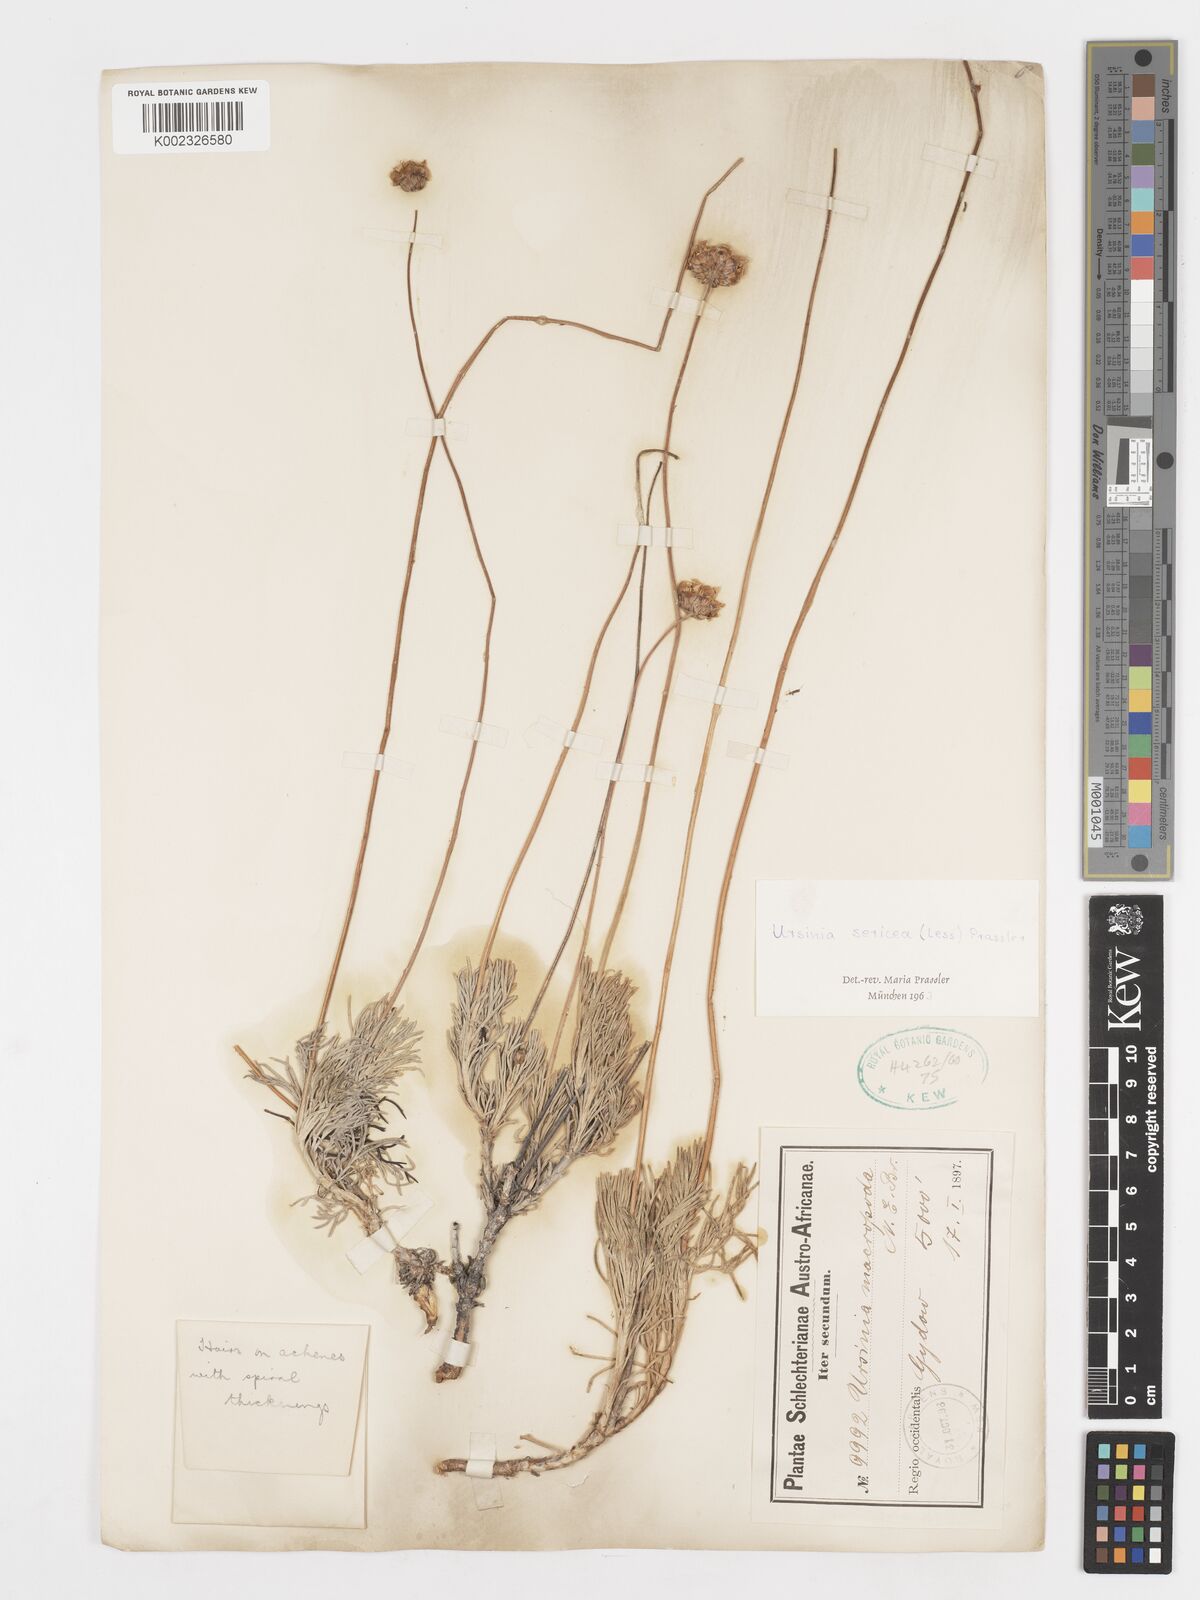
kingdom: Plantae
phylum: Tracheophyta
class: Magnoliopsida
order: Asterales
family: Asteraceae
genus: Ursinia
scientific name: Ursinia sericea
